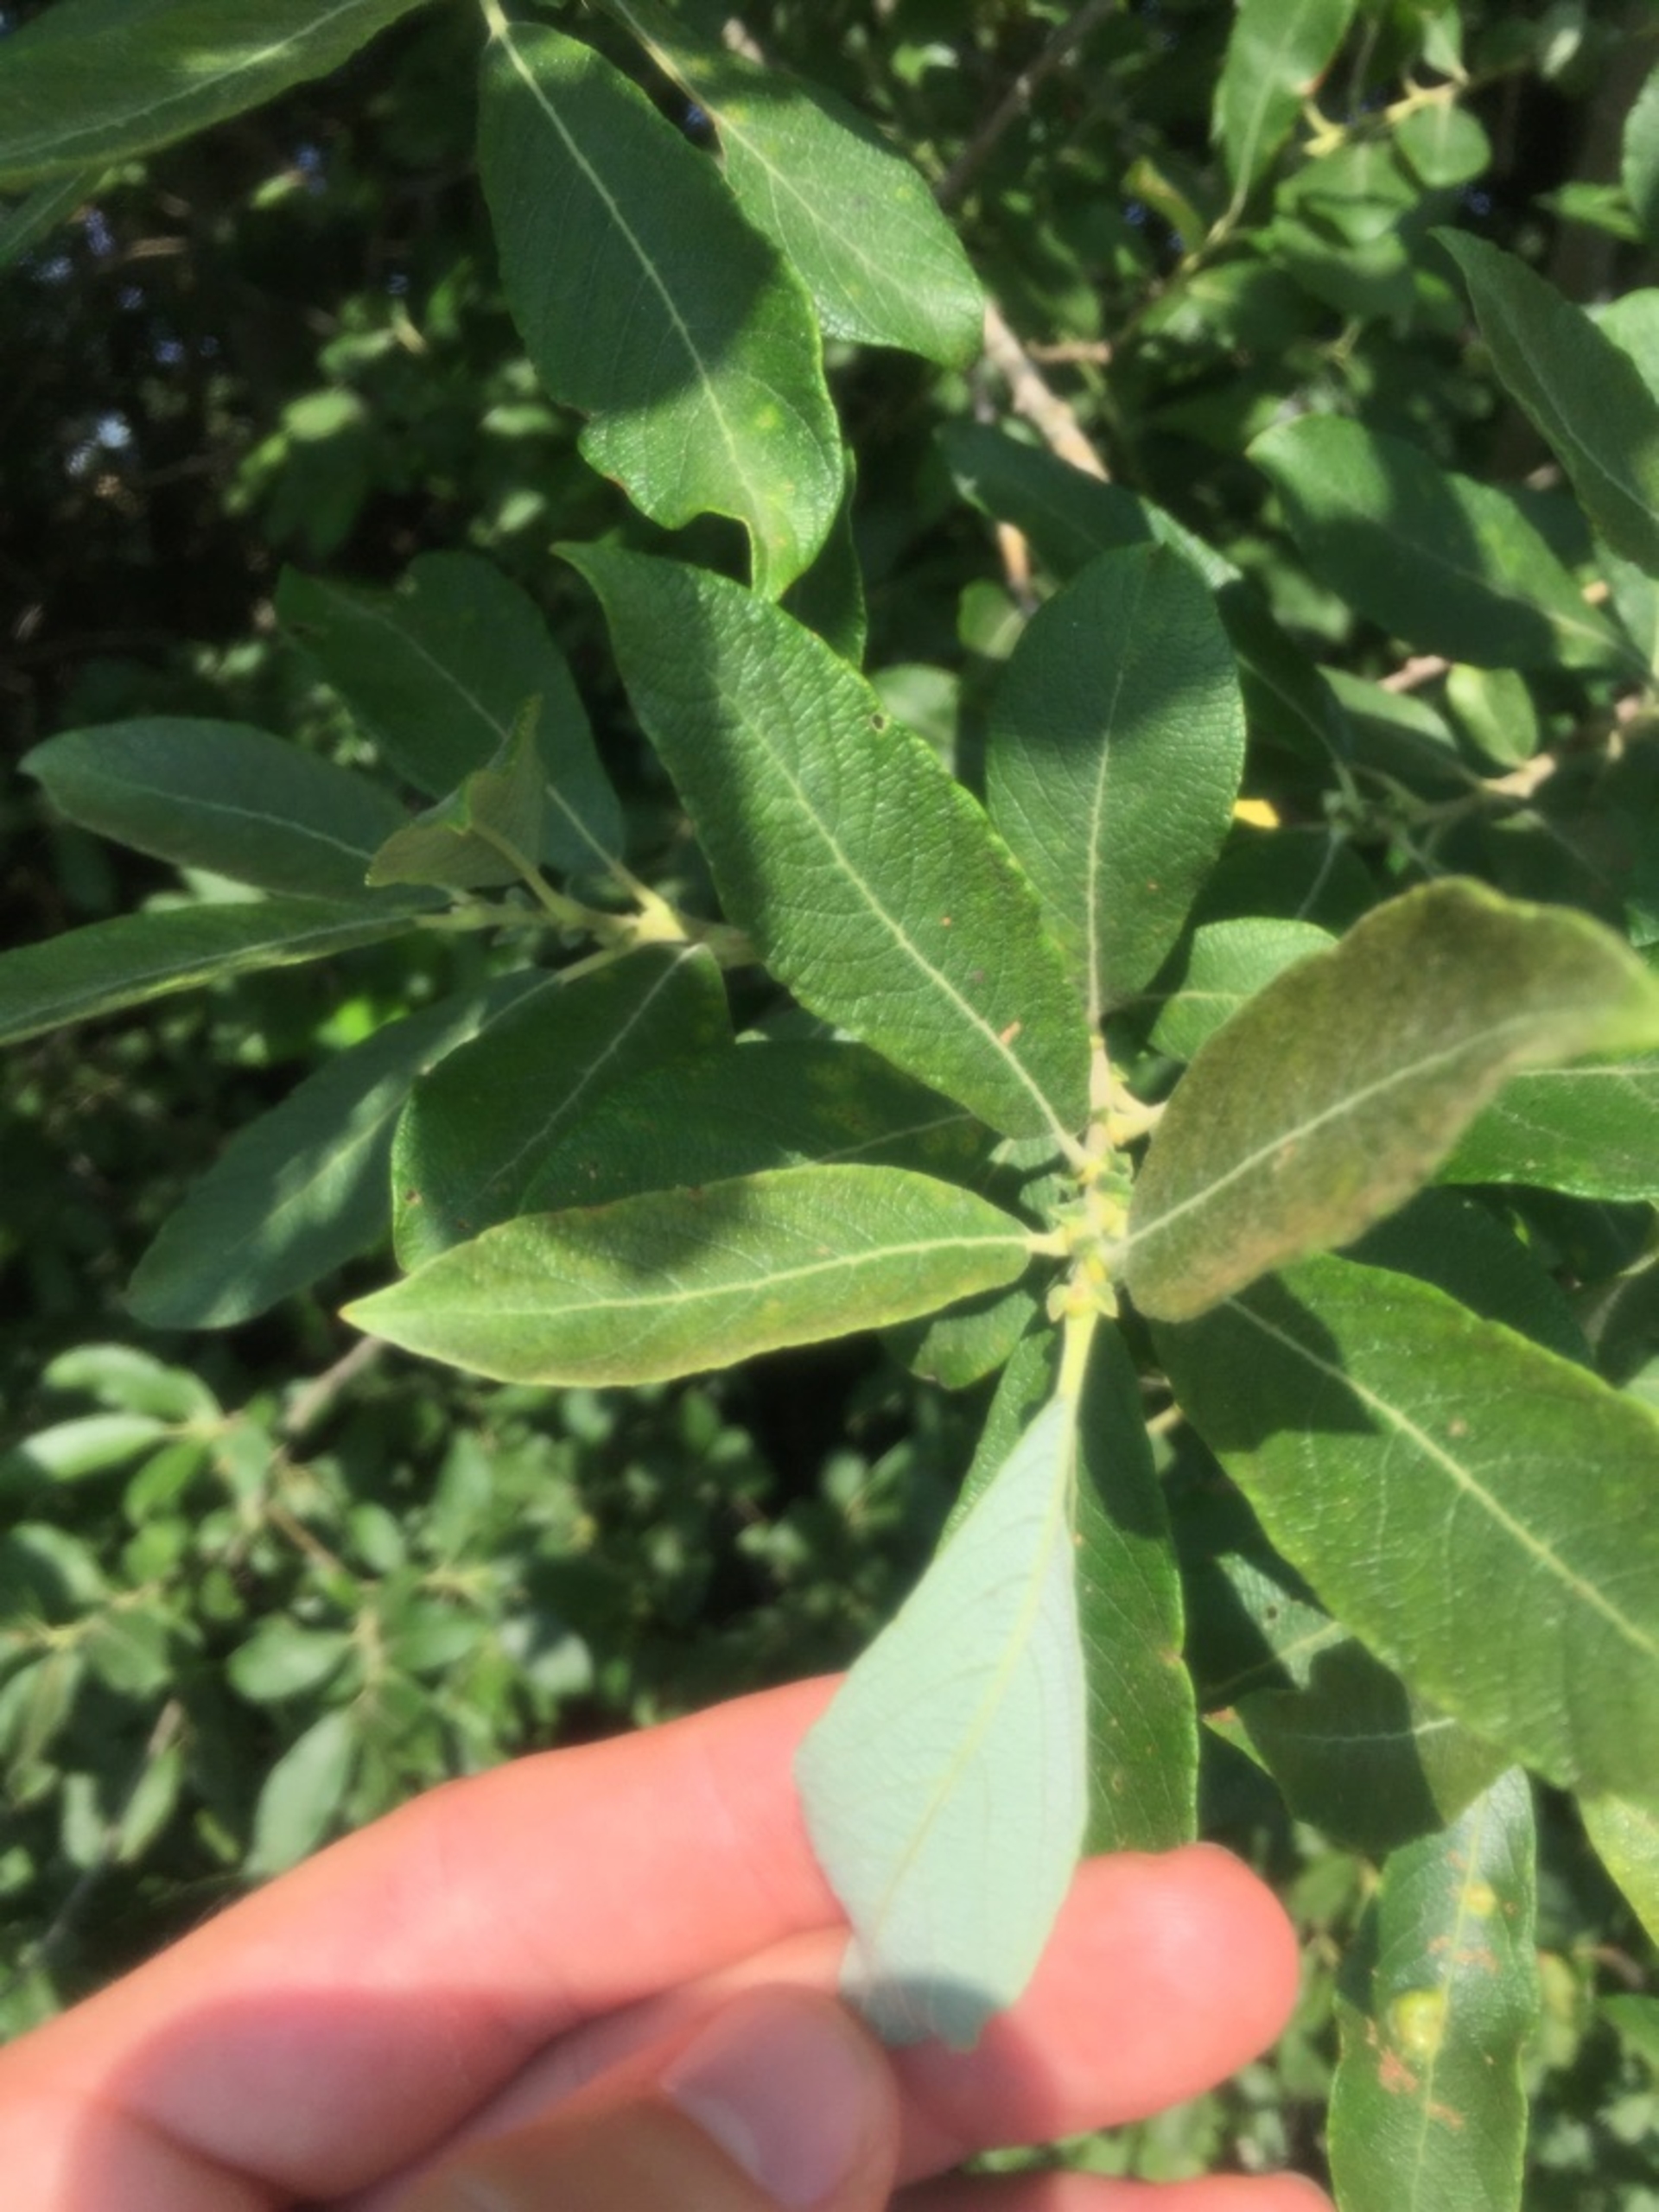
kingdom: Plantae
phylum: Tracheophyta
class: Magnoliopsida
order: Malpighiales
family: Salicaceae
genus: Salix
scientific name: Salix cinerea
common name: Grå-pil
